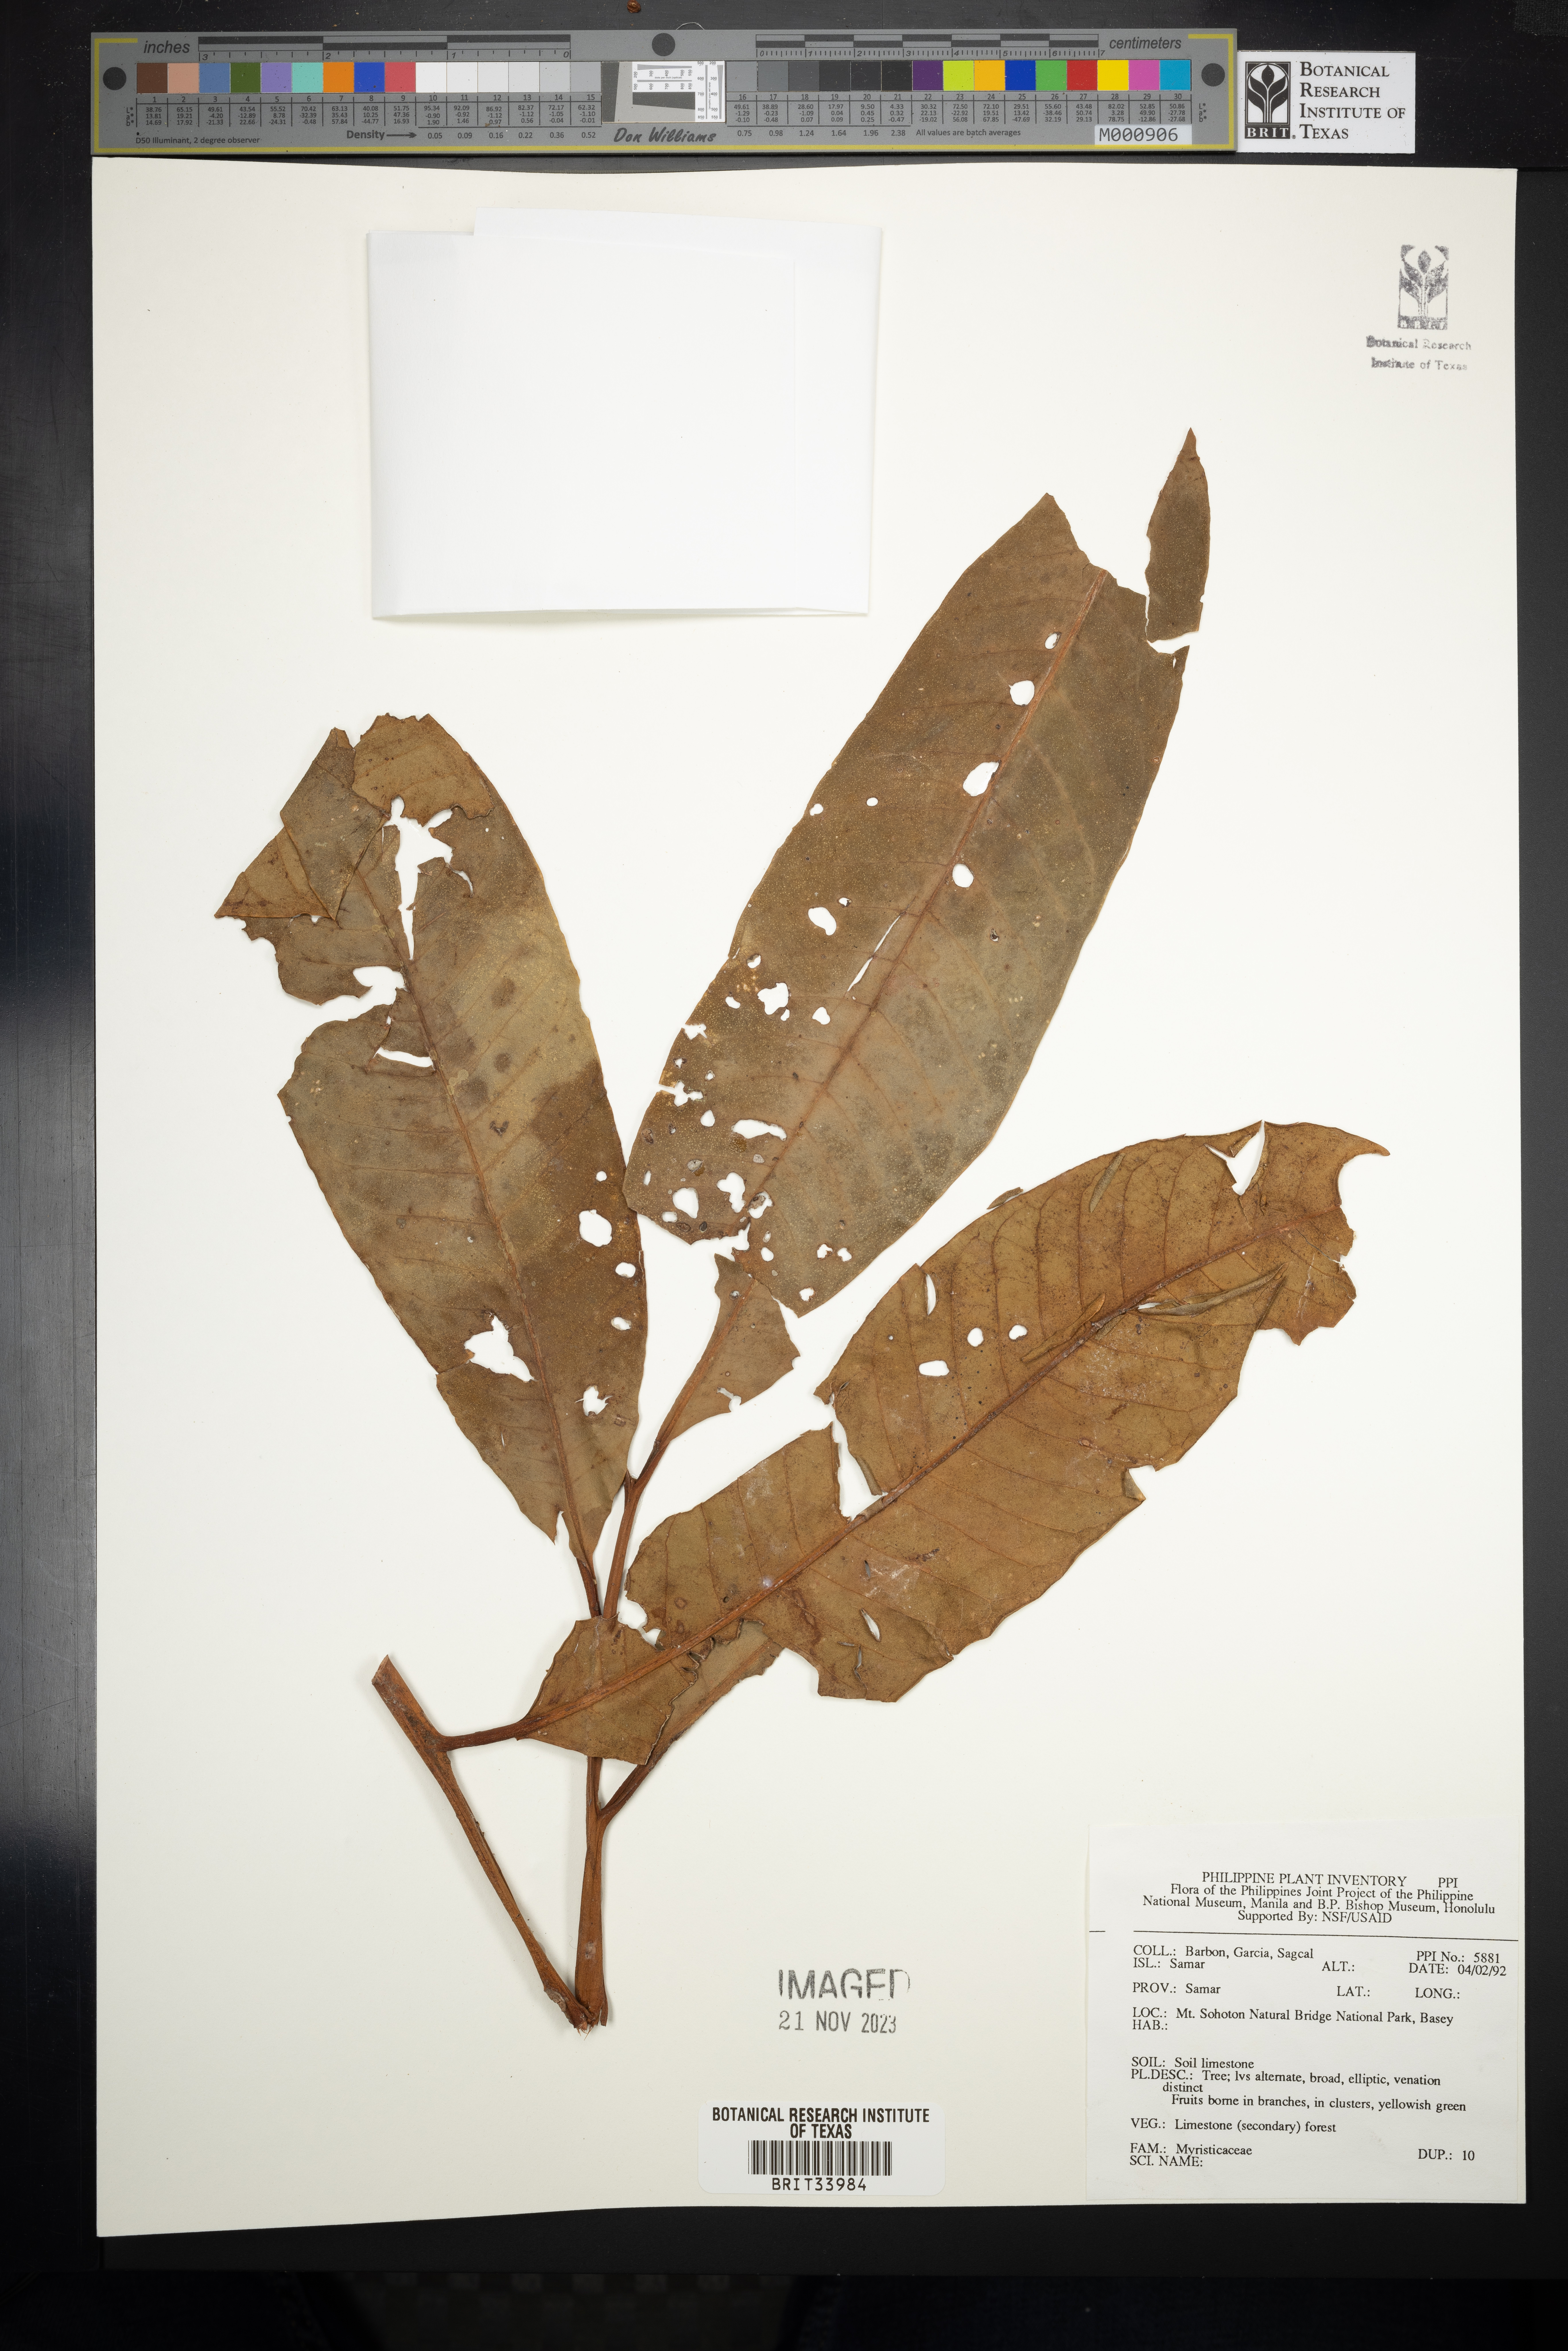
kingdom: Plantae
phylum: Tracheophyta
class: Magnoliopsida
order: Magnoliales
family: Myristicaceae
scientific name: Myristicaceae
